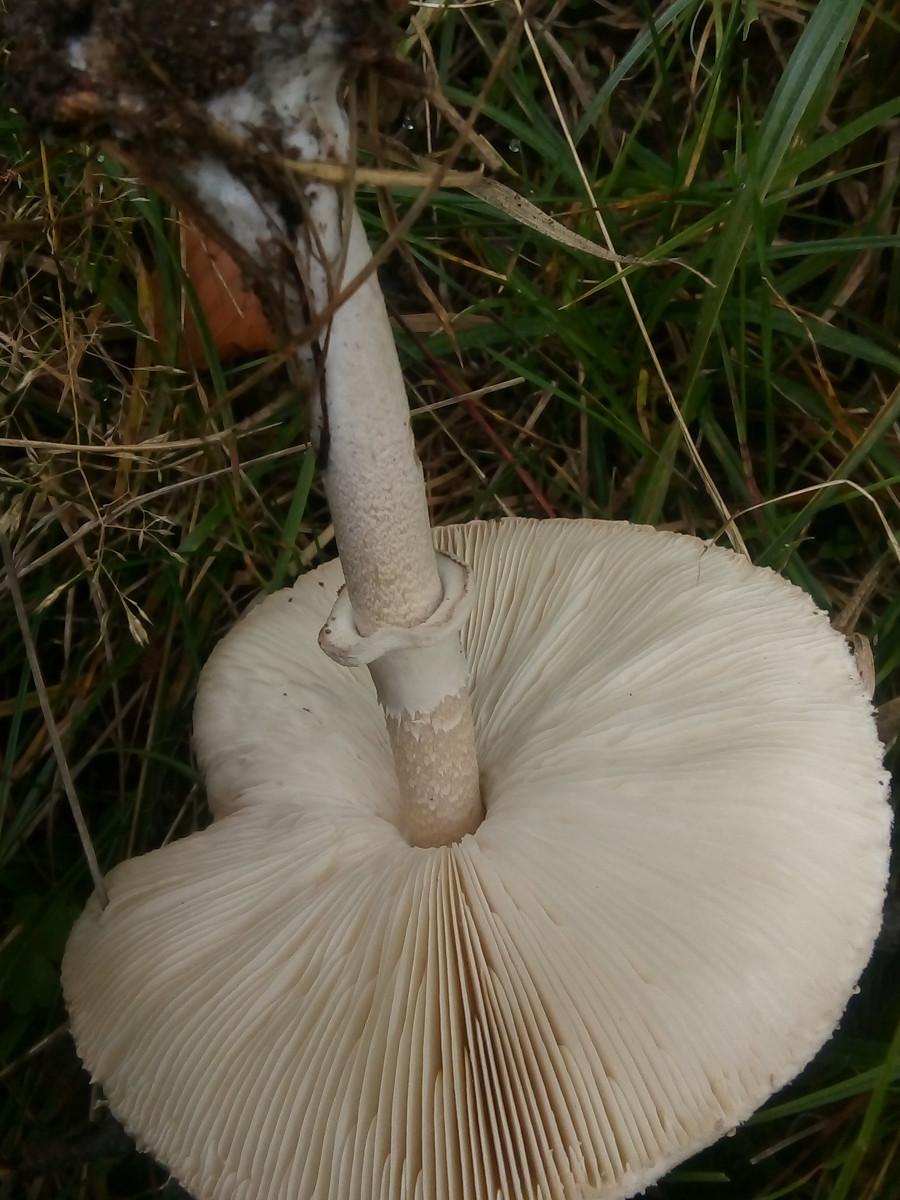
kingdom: Fungi
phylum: Basidiomycota
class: Agaricomycetes
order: Agaricales
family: Agaricaceae
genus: Macrolepiota
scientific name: Macrolepiota mastoidea
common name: puklet kæmpeparasolhat
